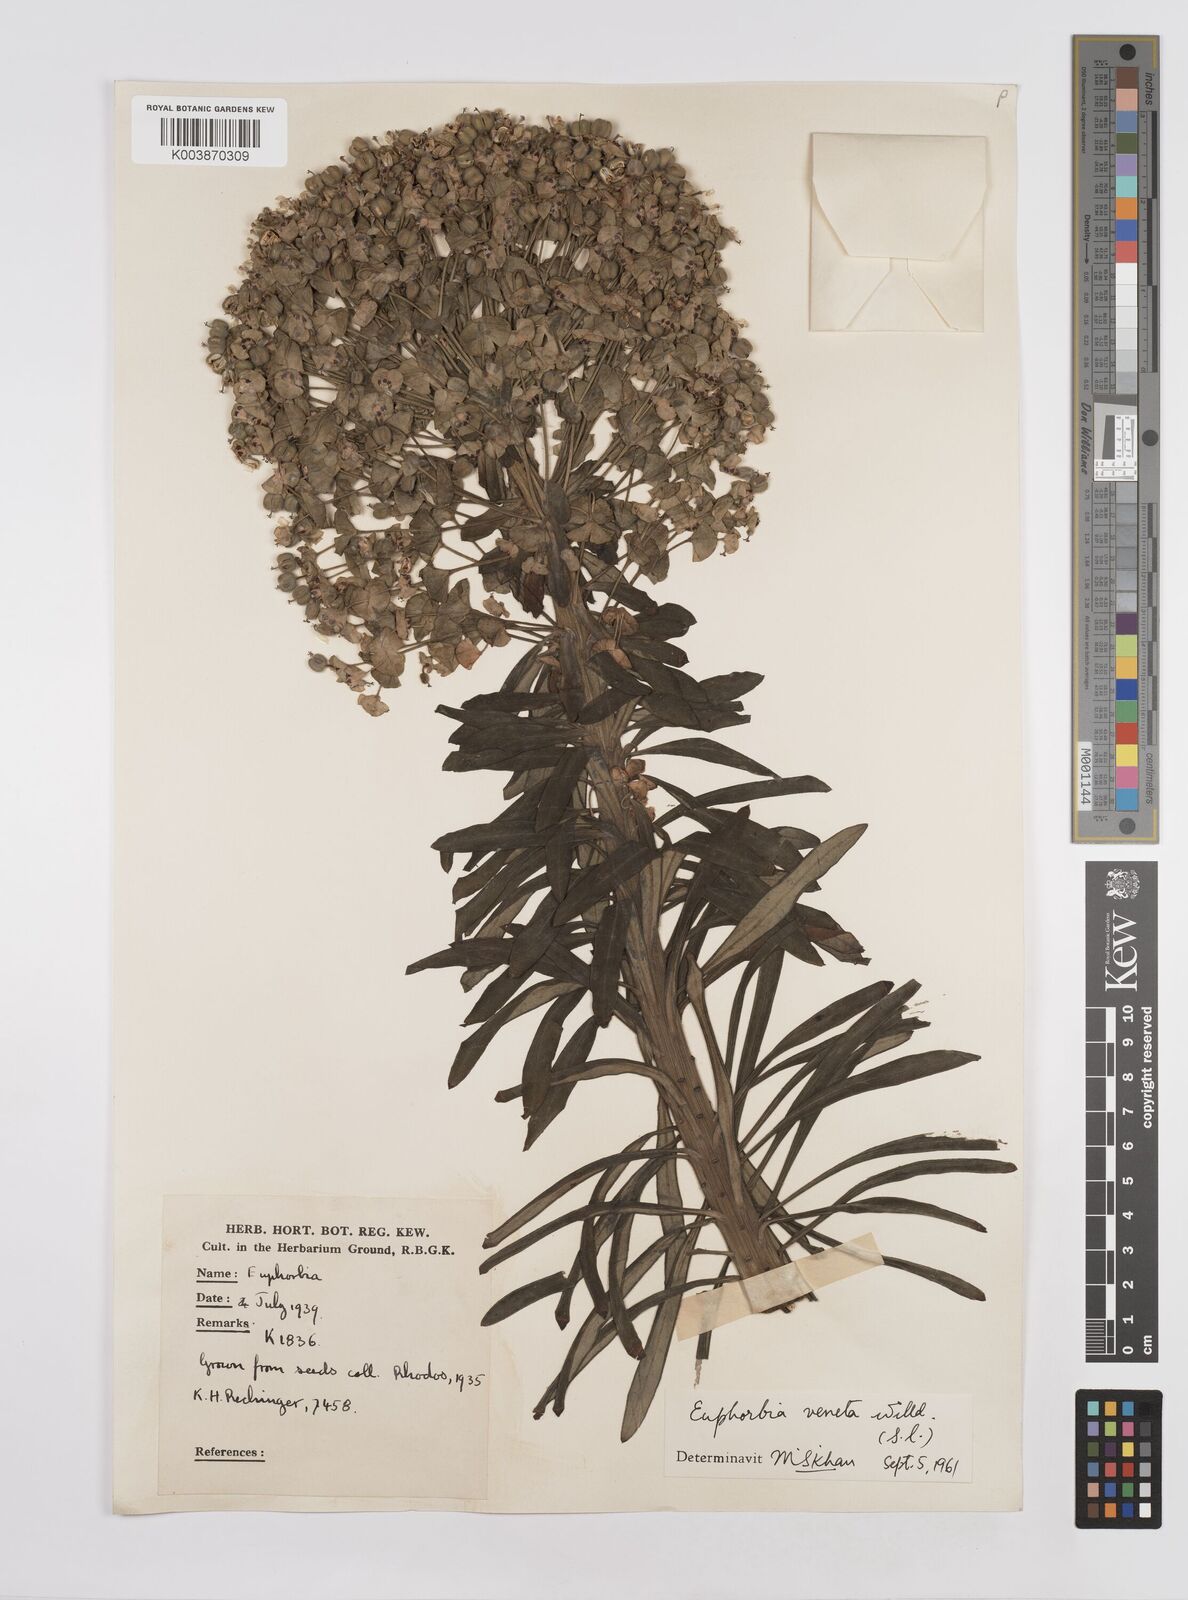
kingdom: Plantae
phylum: Tracheophyta
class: Magnoliopsida
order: Malpighiales
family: Euphorbiaceae
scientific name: Euphorbiaceae
